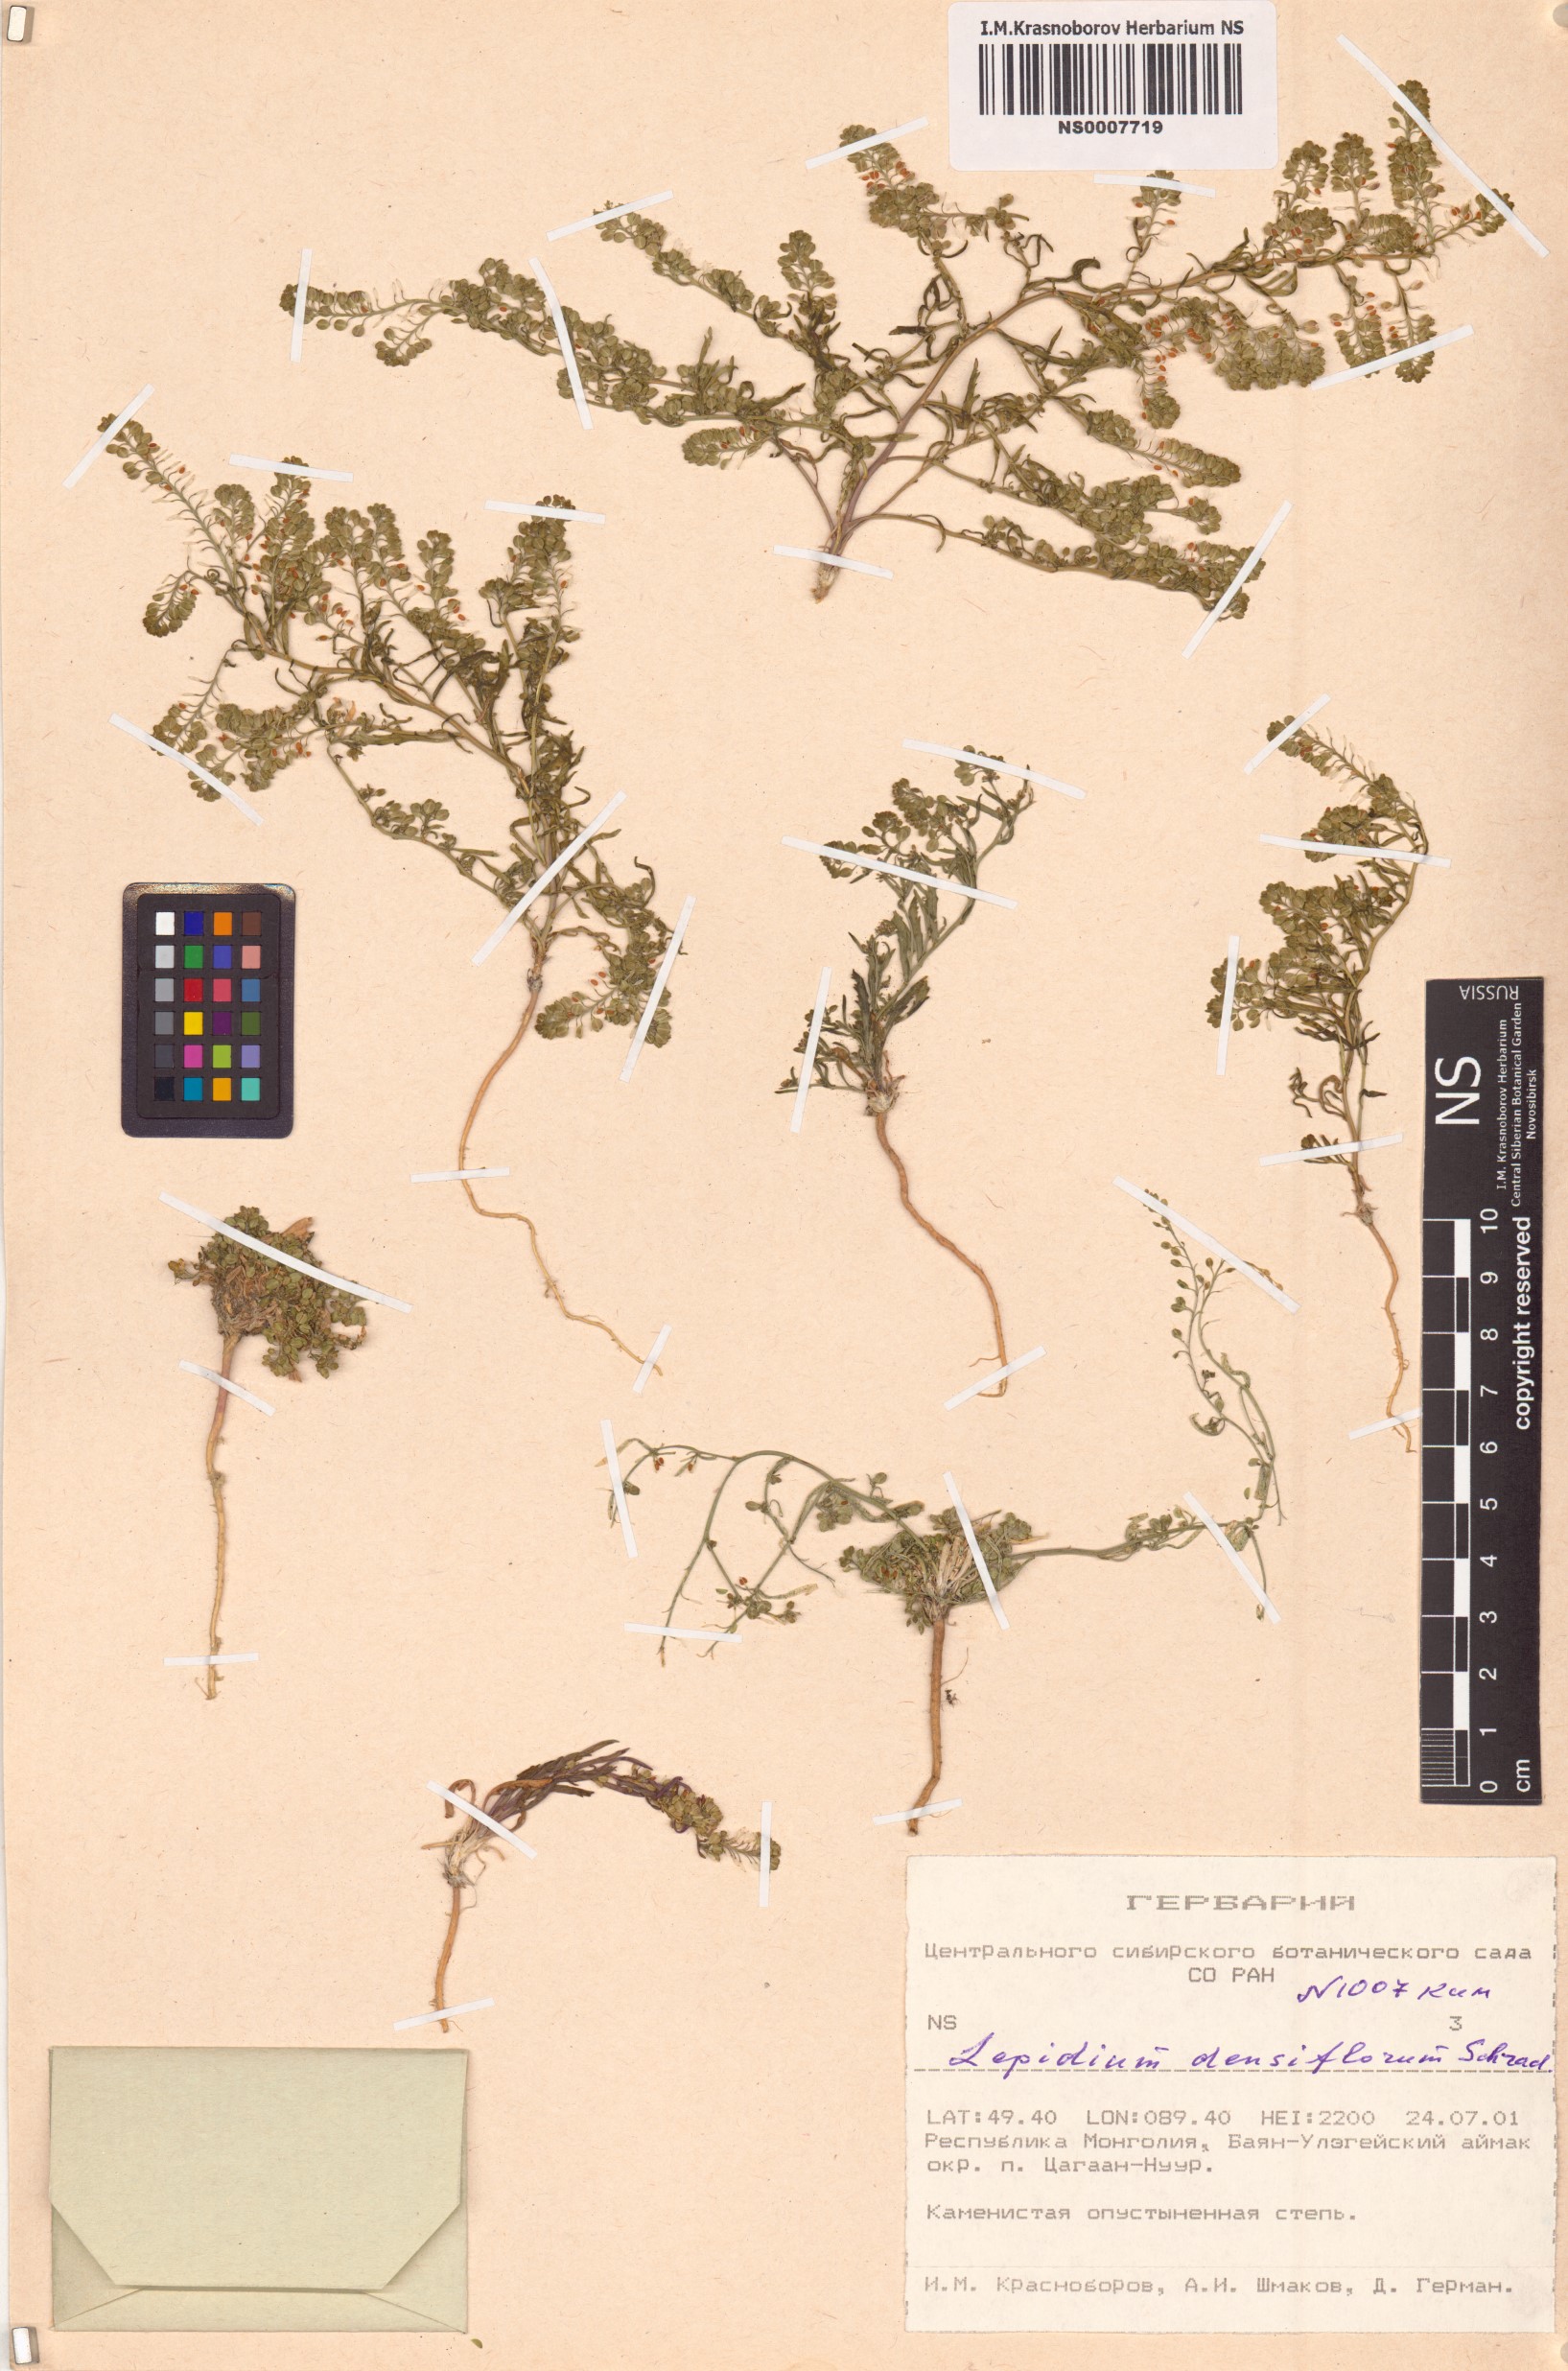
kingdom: Plantae
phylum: Tracheophyta
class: Magnoliopsida
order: Brassicales
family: Brassicaceae
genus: Lepidium
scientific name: Lepidium densiflorum
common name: Miner's pepperwort
